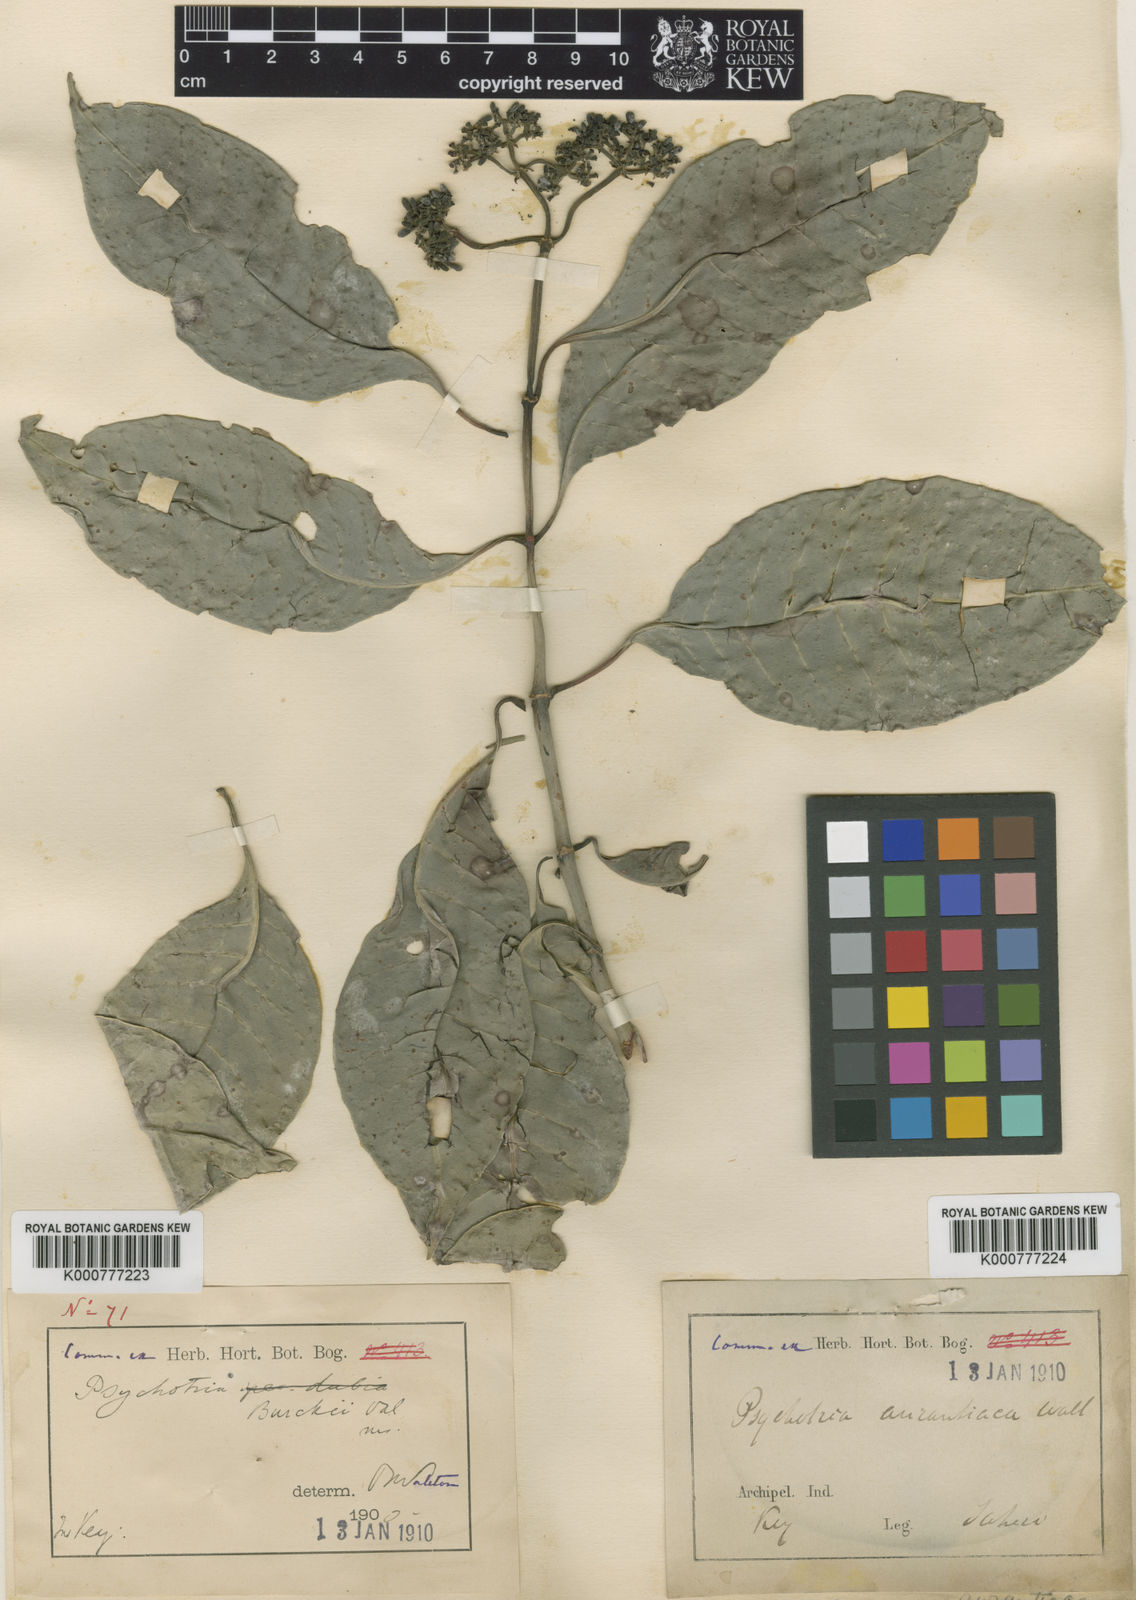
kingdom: Plantae
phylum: Tracheophyta
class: Magnoliopsida
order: Gentianales
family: Rubiaceae
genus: Psychotria
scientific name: Psychotria
